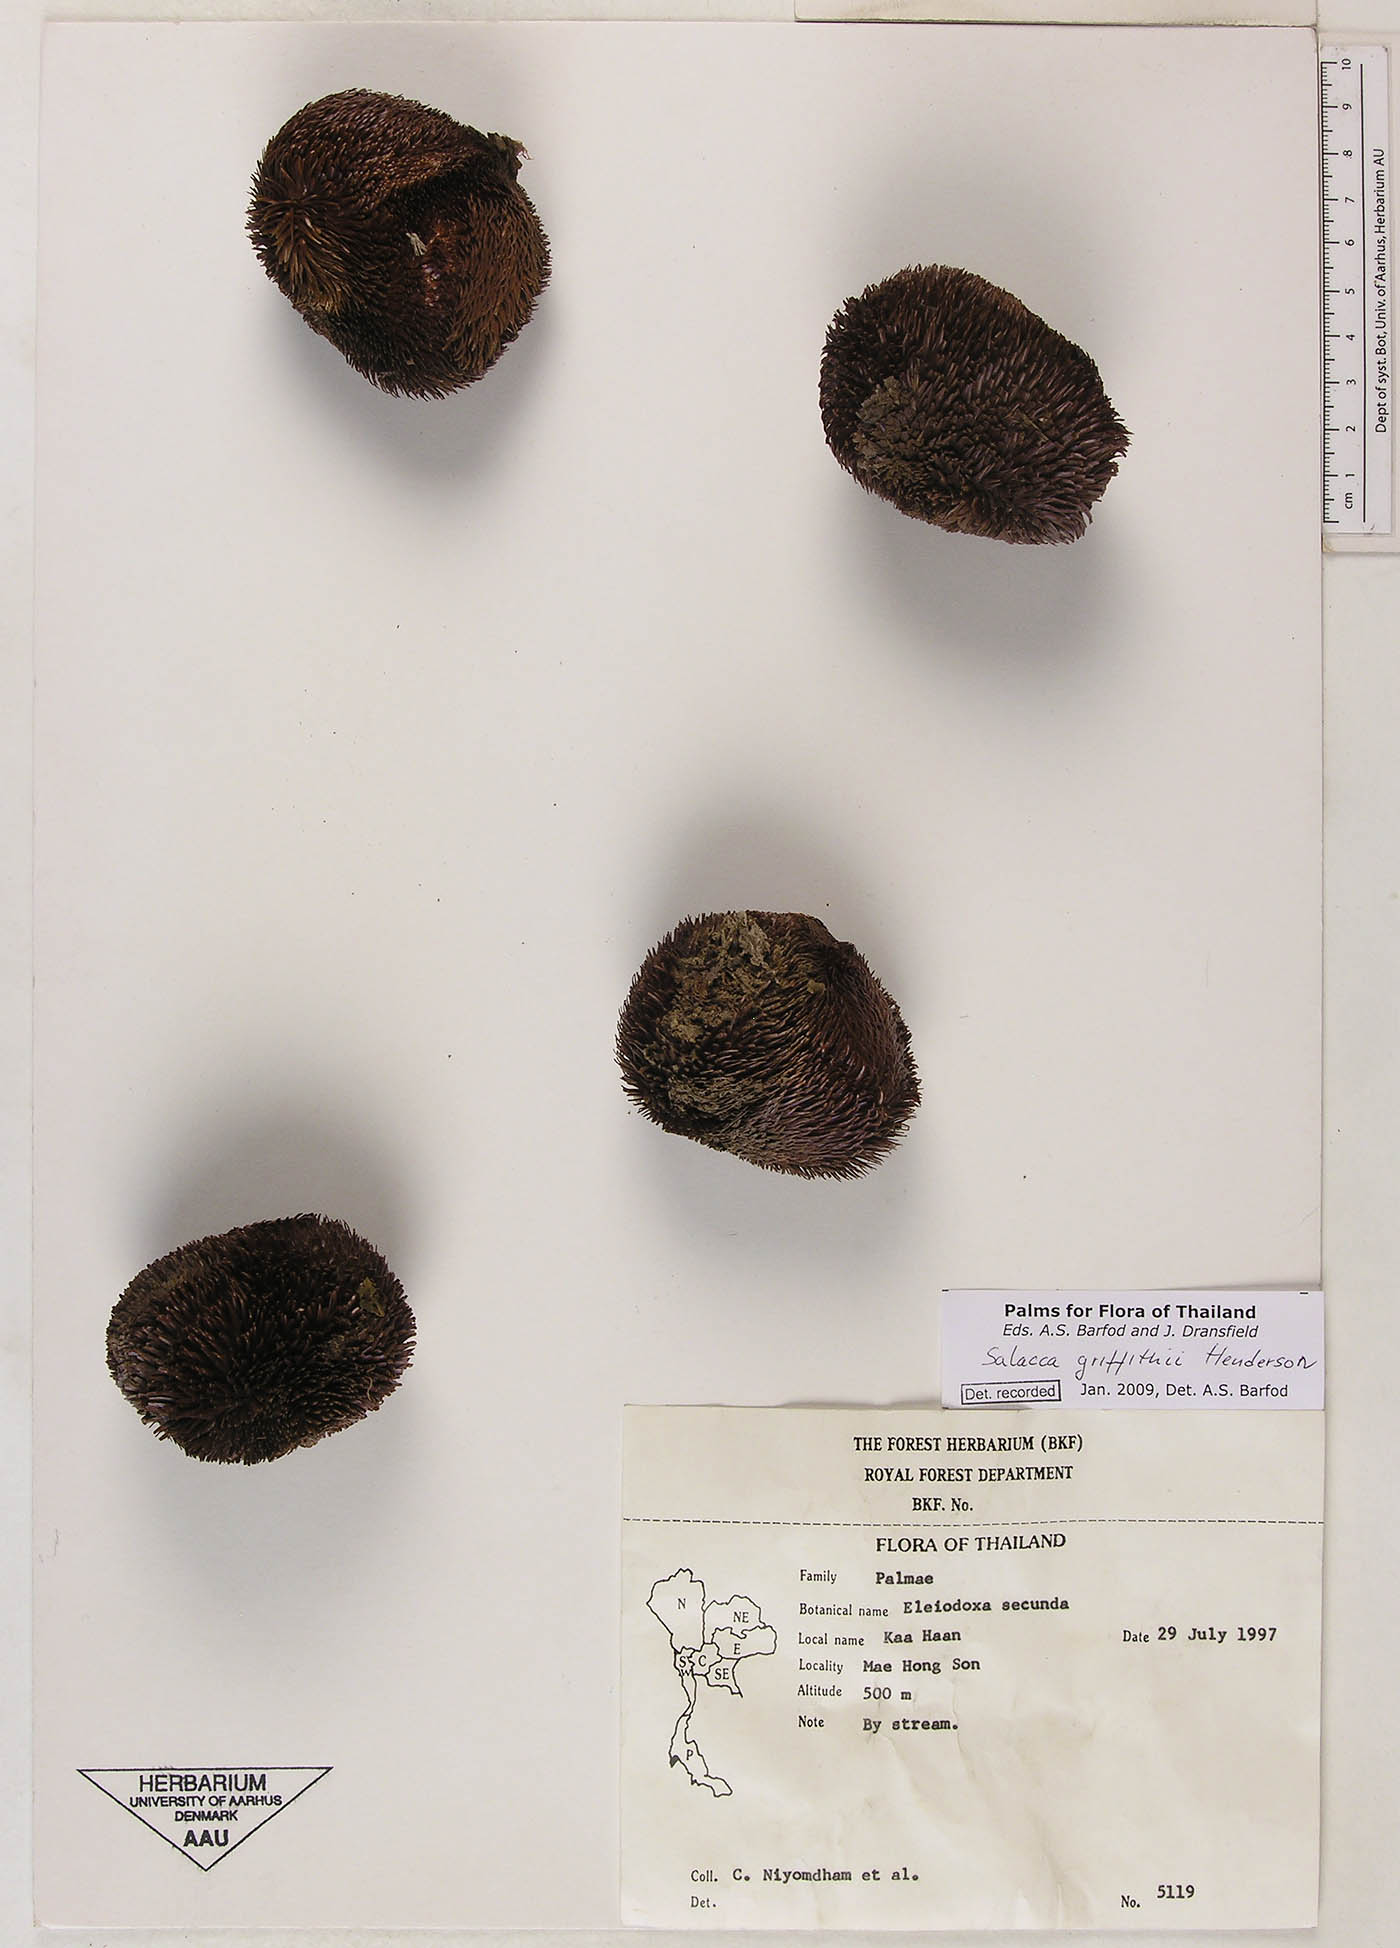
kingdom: Plantae
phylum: Tracheophyta
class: Liliopsida
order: Arecales
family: Arecaceae
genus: Salacca
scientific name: Salacca griffithii
